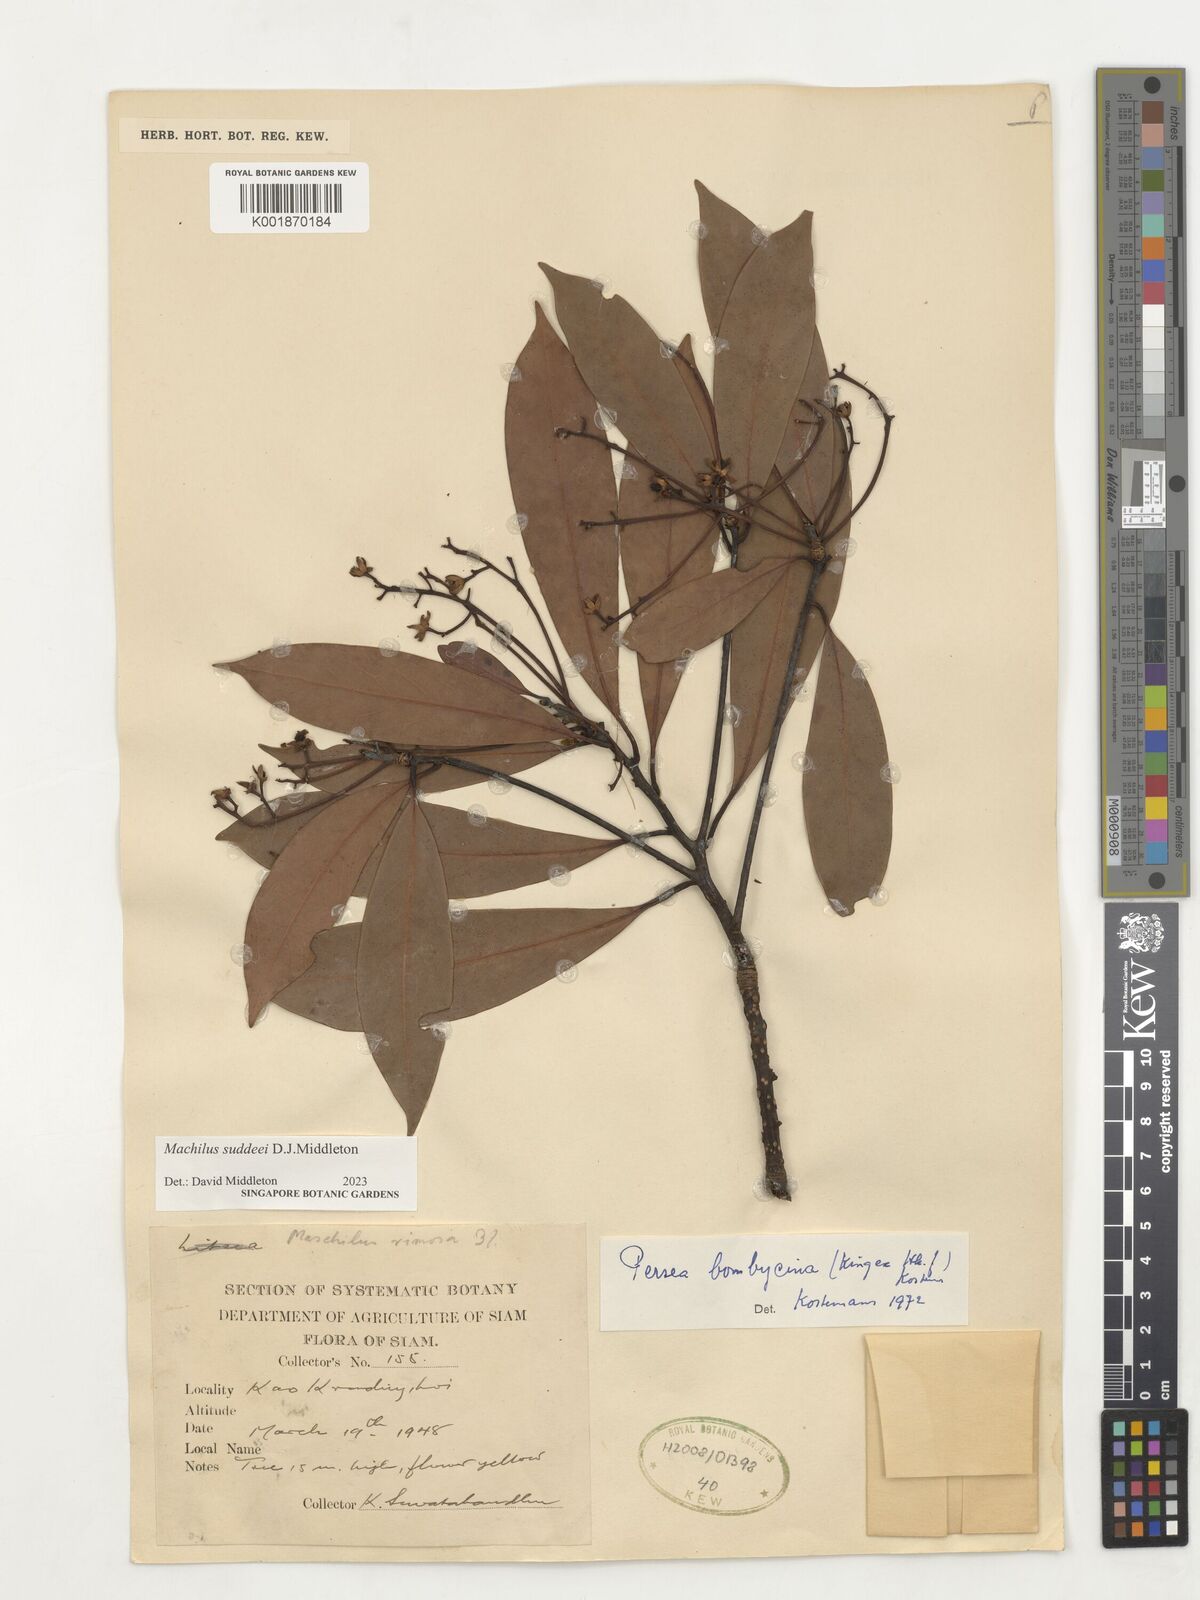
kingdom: Plantae
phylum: Tracheophyta
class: Magnoliopsida
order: Laurales
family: Lauraceae
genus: Machilus
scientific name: Machilus
